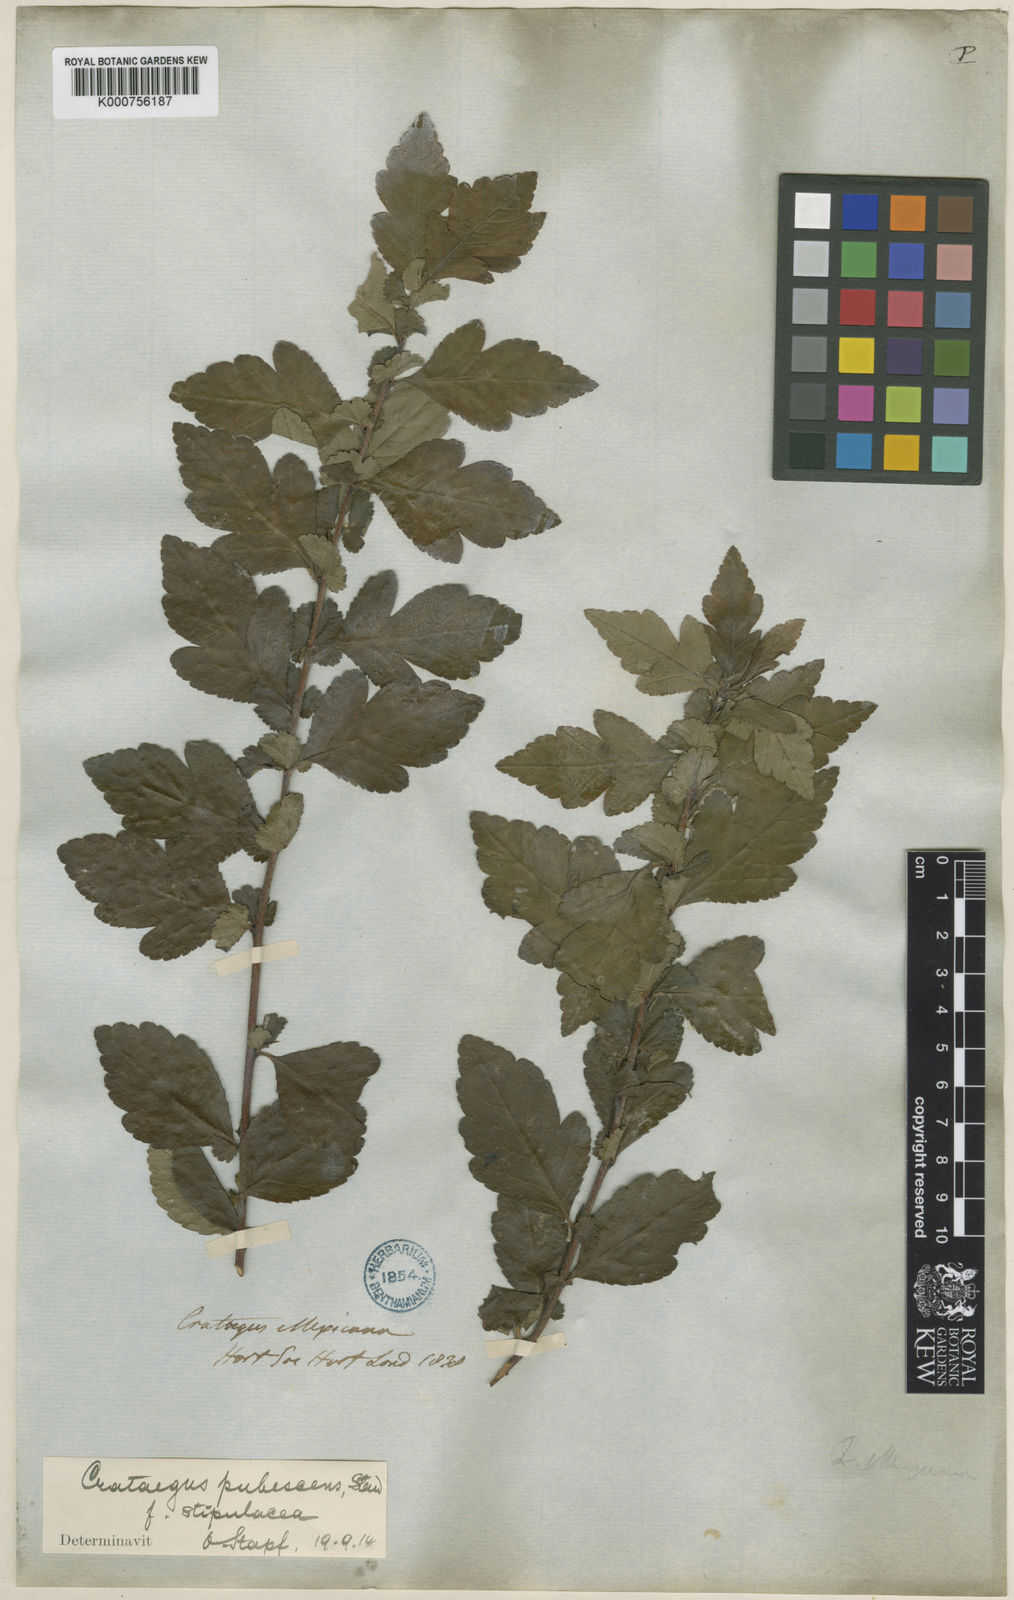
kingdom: Plantae
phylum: Tracheophyta
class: Magnoliopsida
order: Rosales
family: Rosaceae
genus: Crataegus
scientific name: Crataegus gracilior
